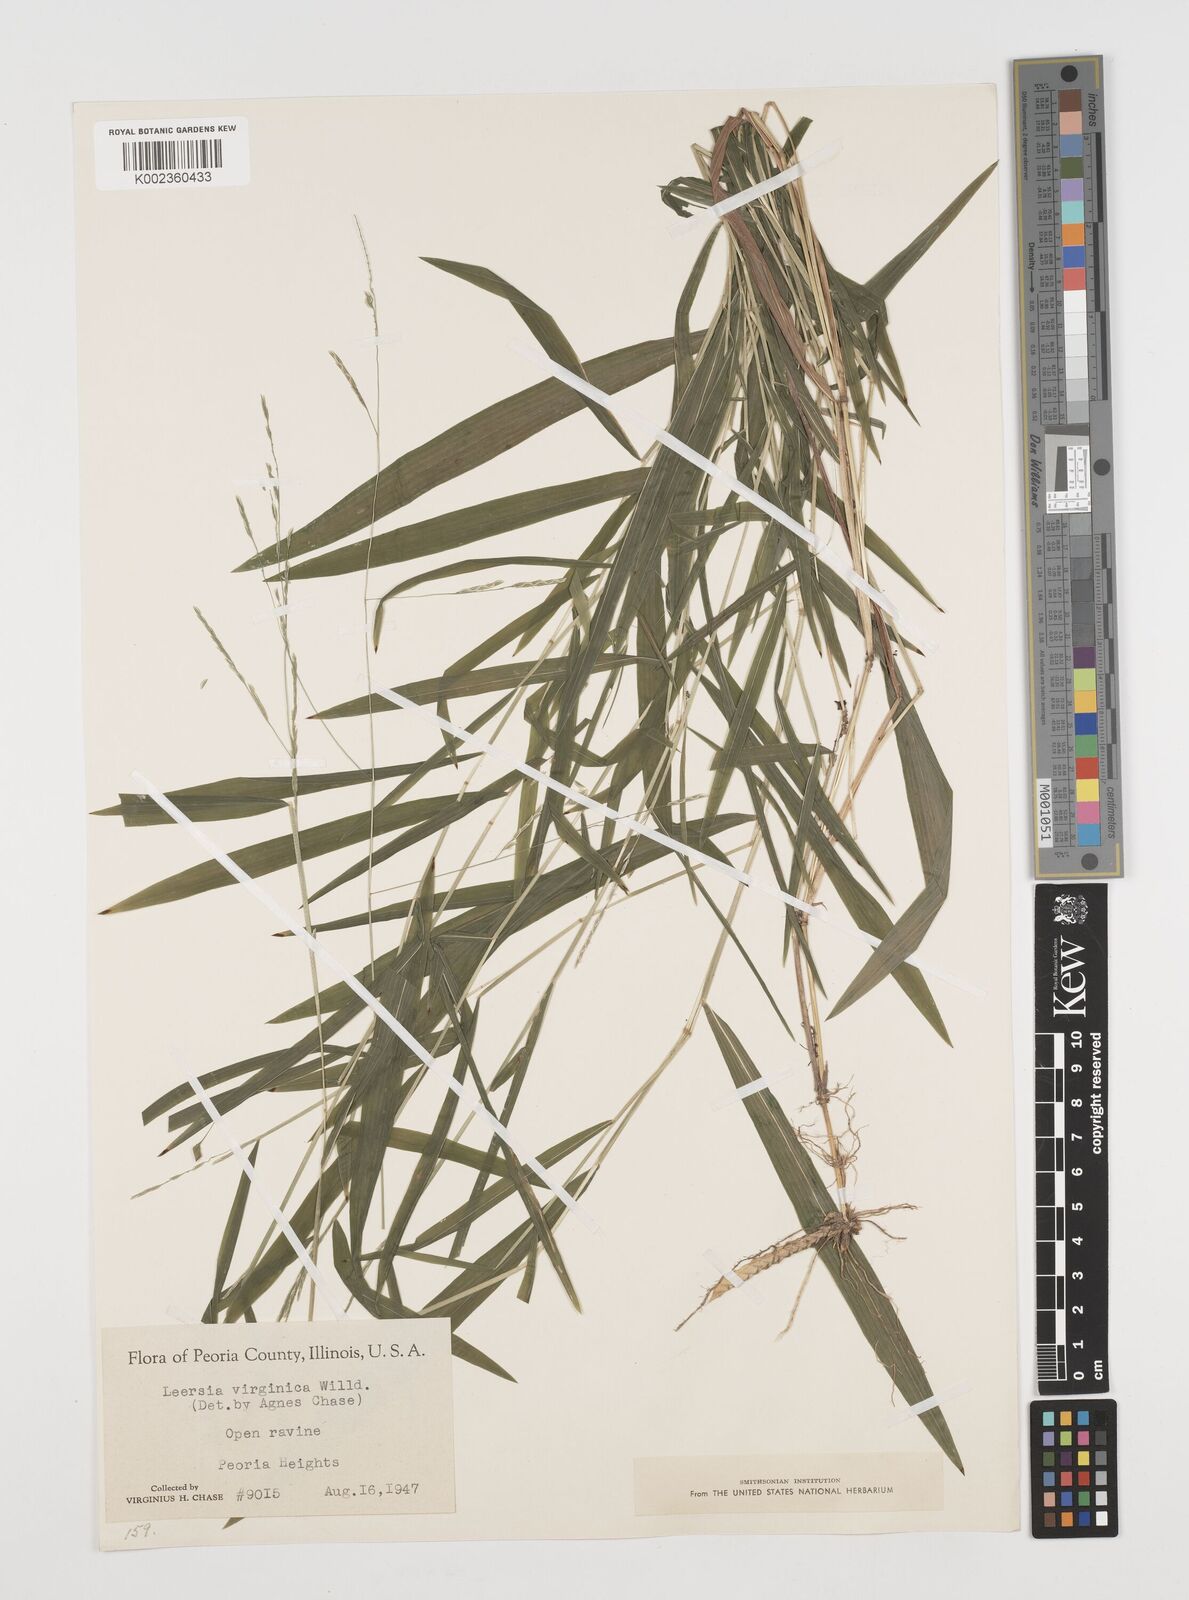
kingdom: Plantae
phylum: Tracheophyta
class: Liliopsida
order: Poales
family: Poaceae
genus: Leersia
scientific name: Leersia virginica
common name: White cutgrass
